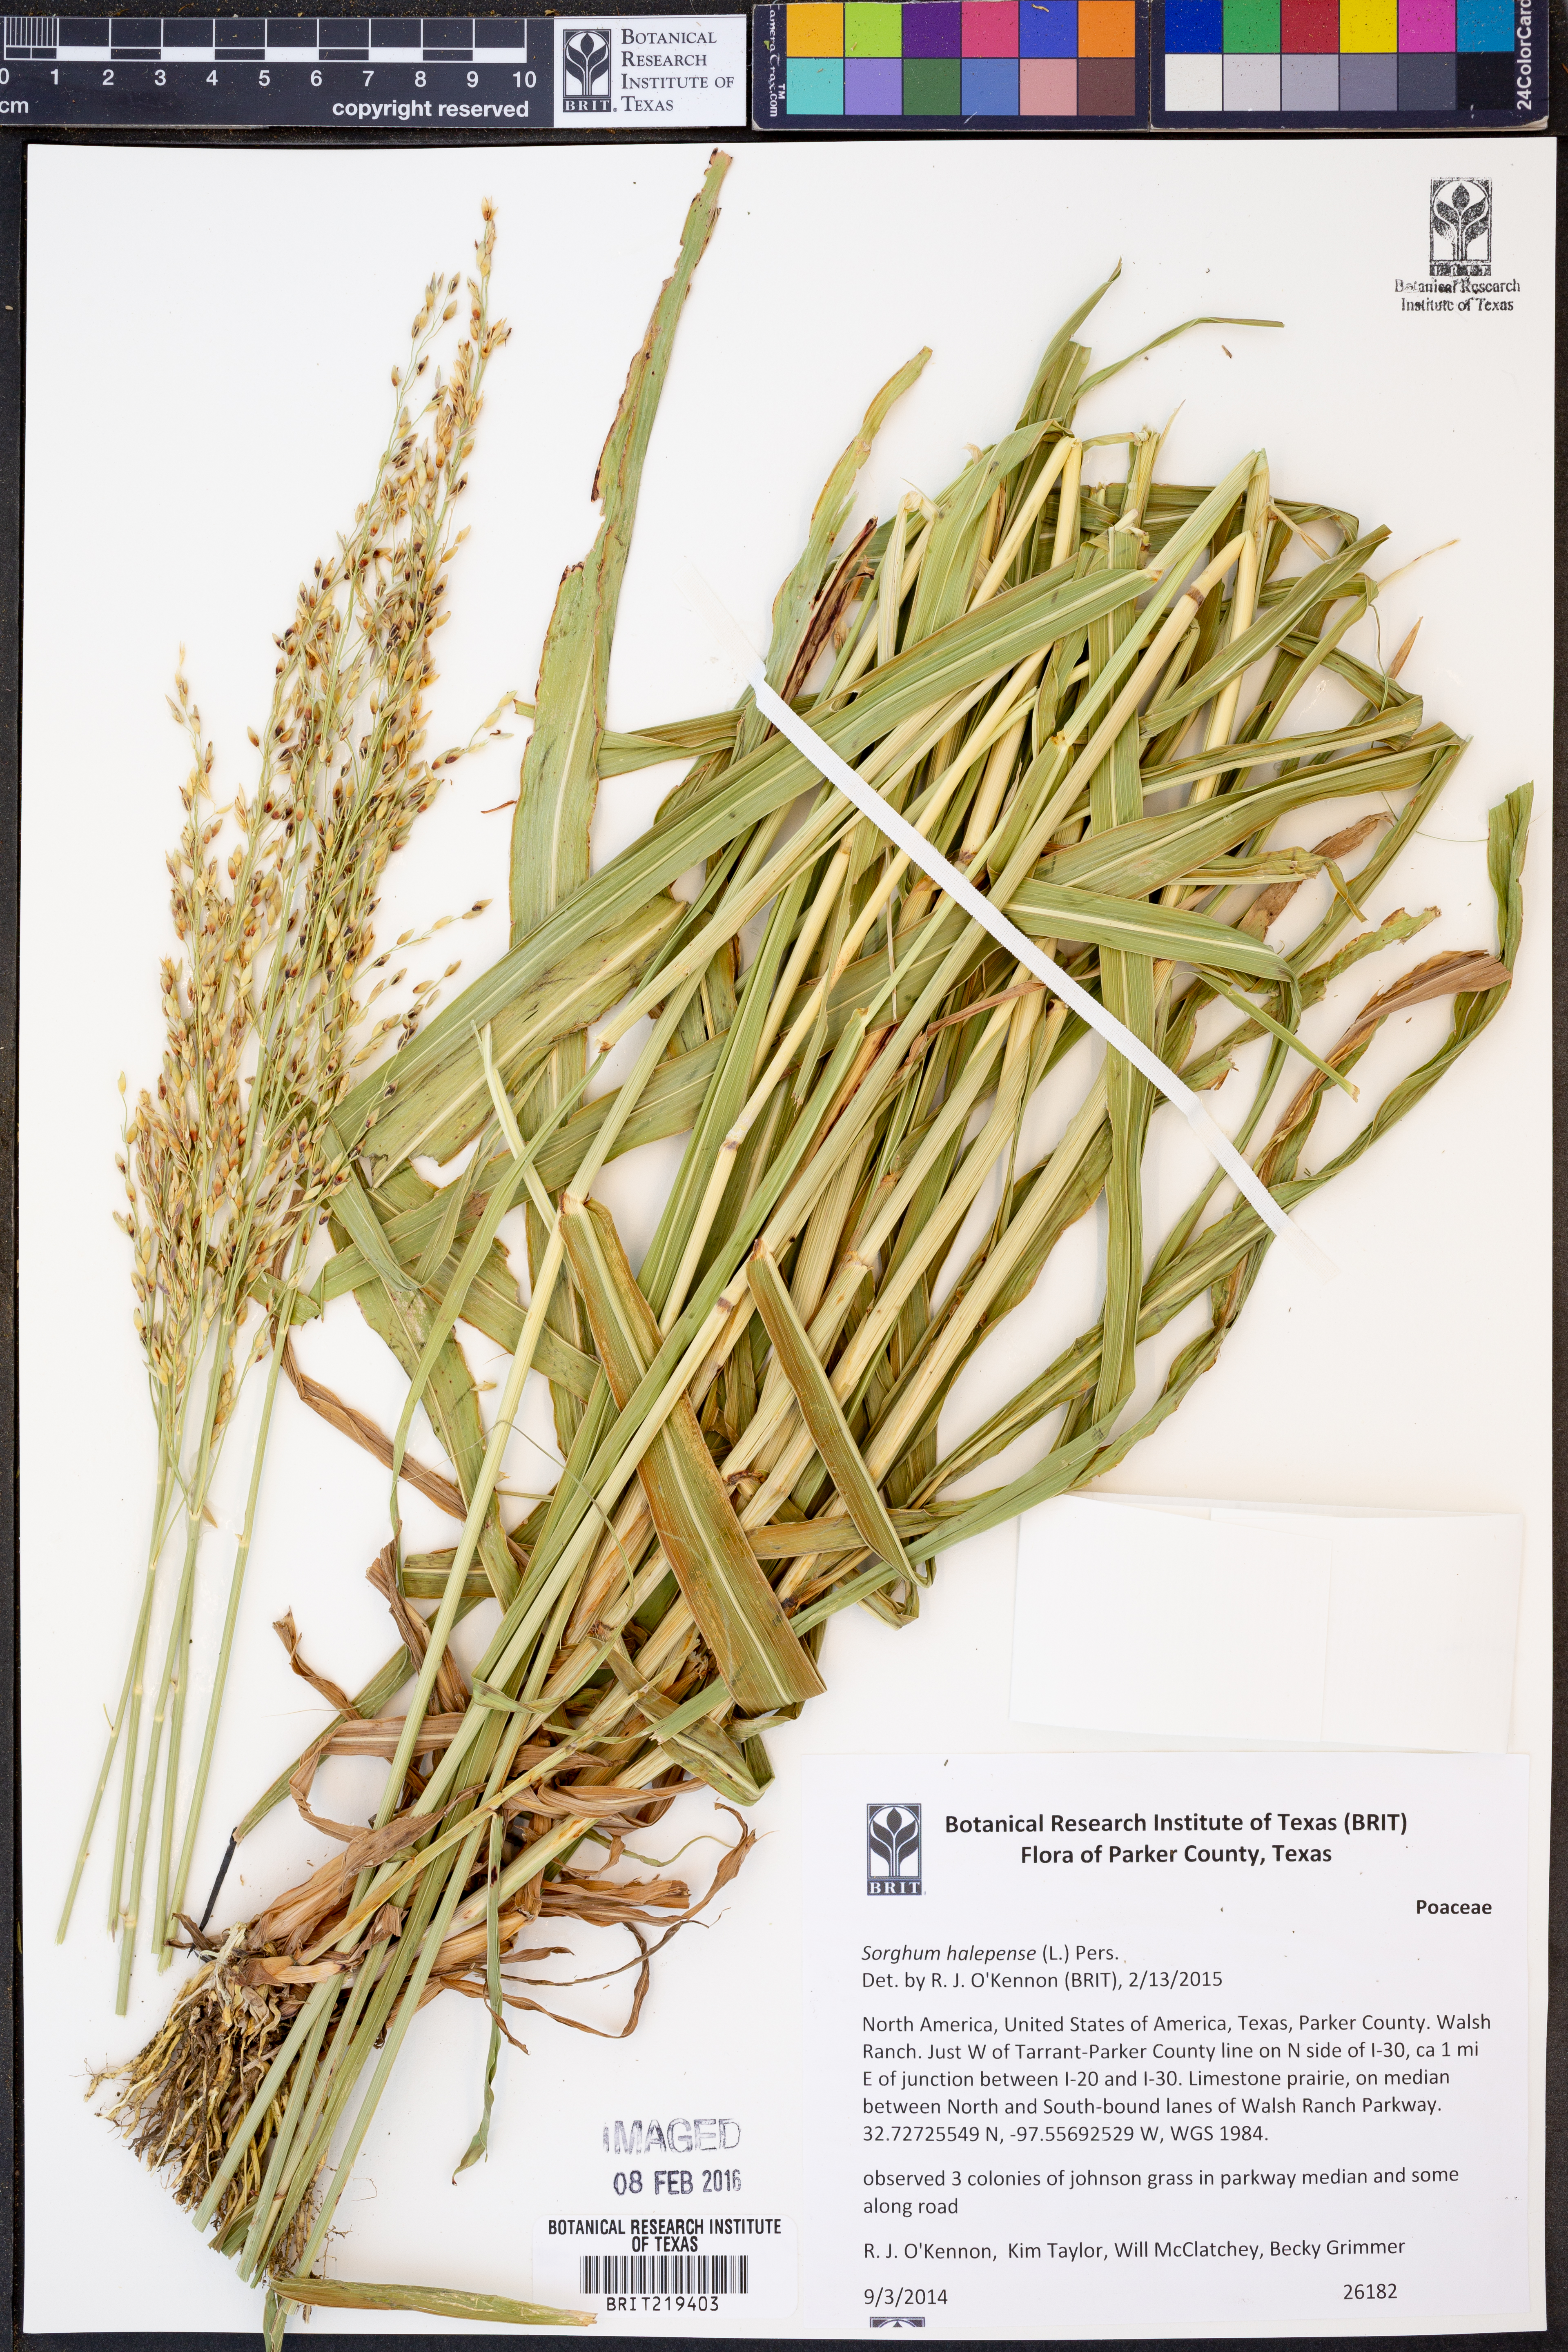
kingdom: Plantae
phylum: Tracheophyta
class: Liliopsida
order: Poales
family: Poaceae
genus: Sorghum
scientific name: Sorghum halepense
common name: Johnson-grass
